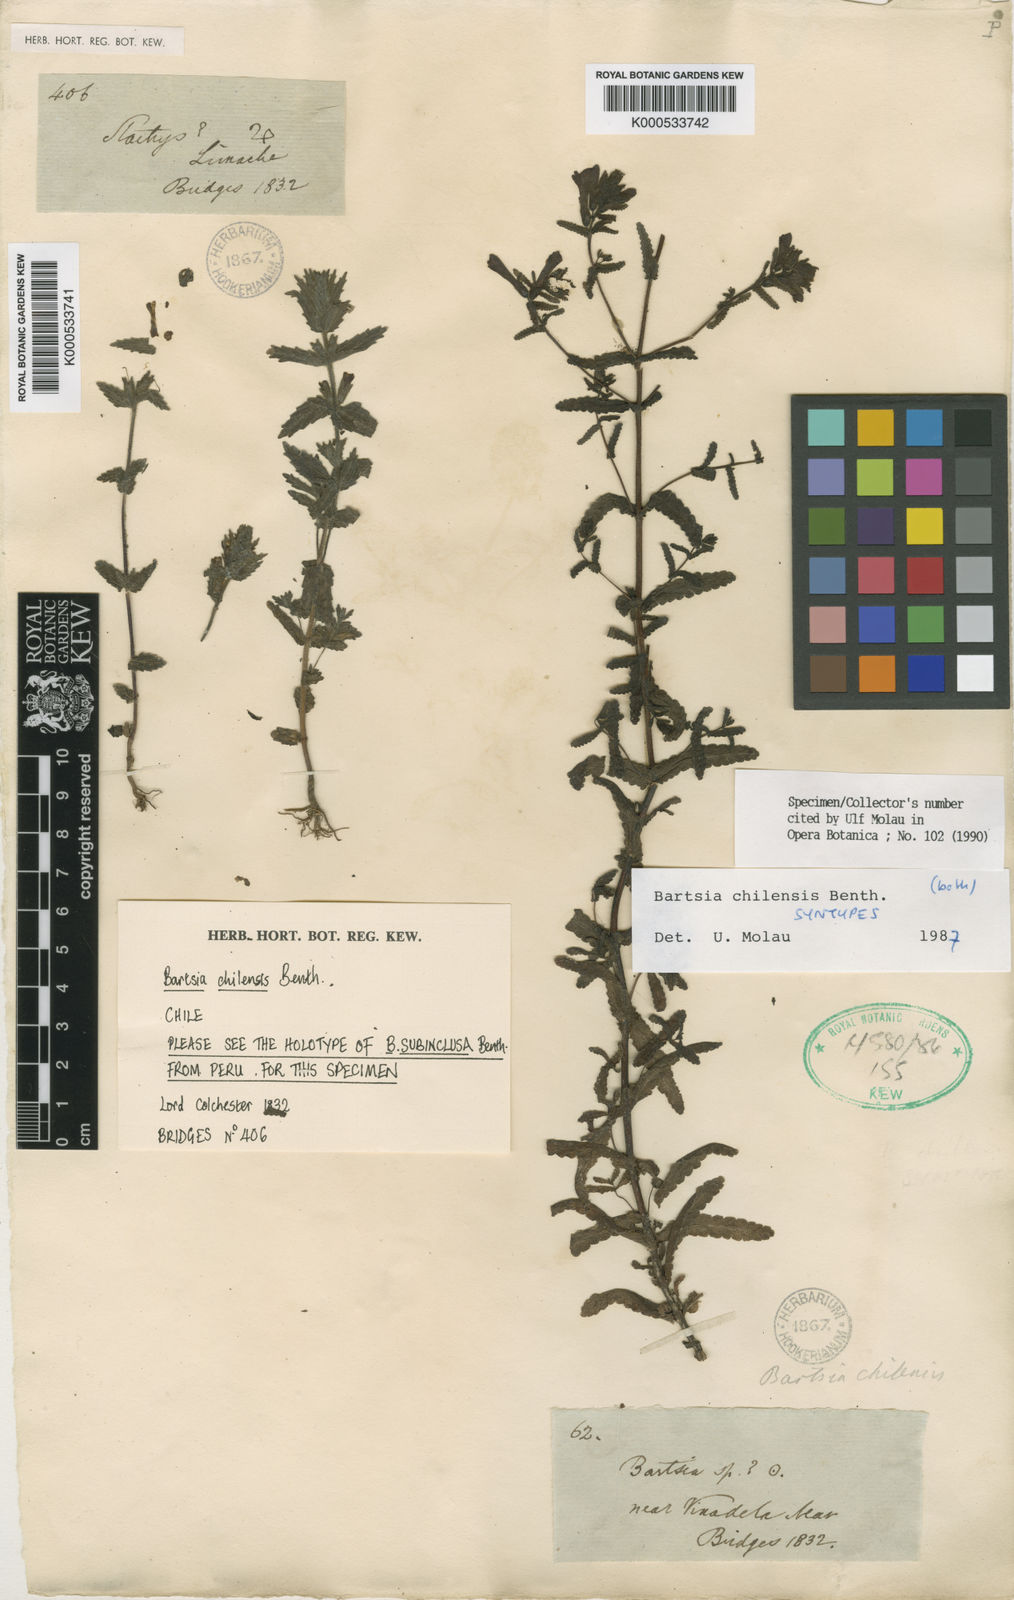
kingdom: Plantae
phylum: Tracheophyta
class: Magnoliopsida
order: Lamiales
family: Orobanchaceae
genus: Neobartsia
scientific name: Neobartsia chilensis
